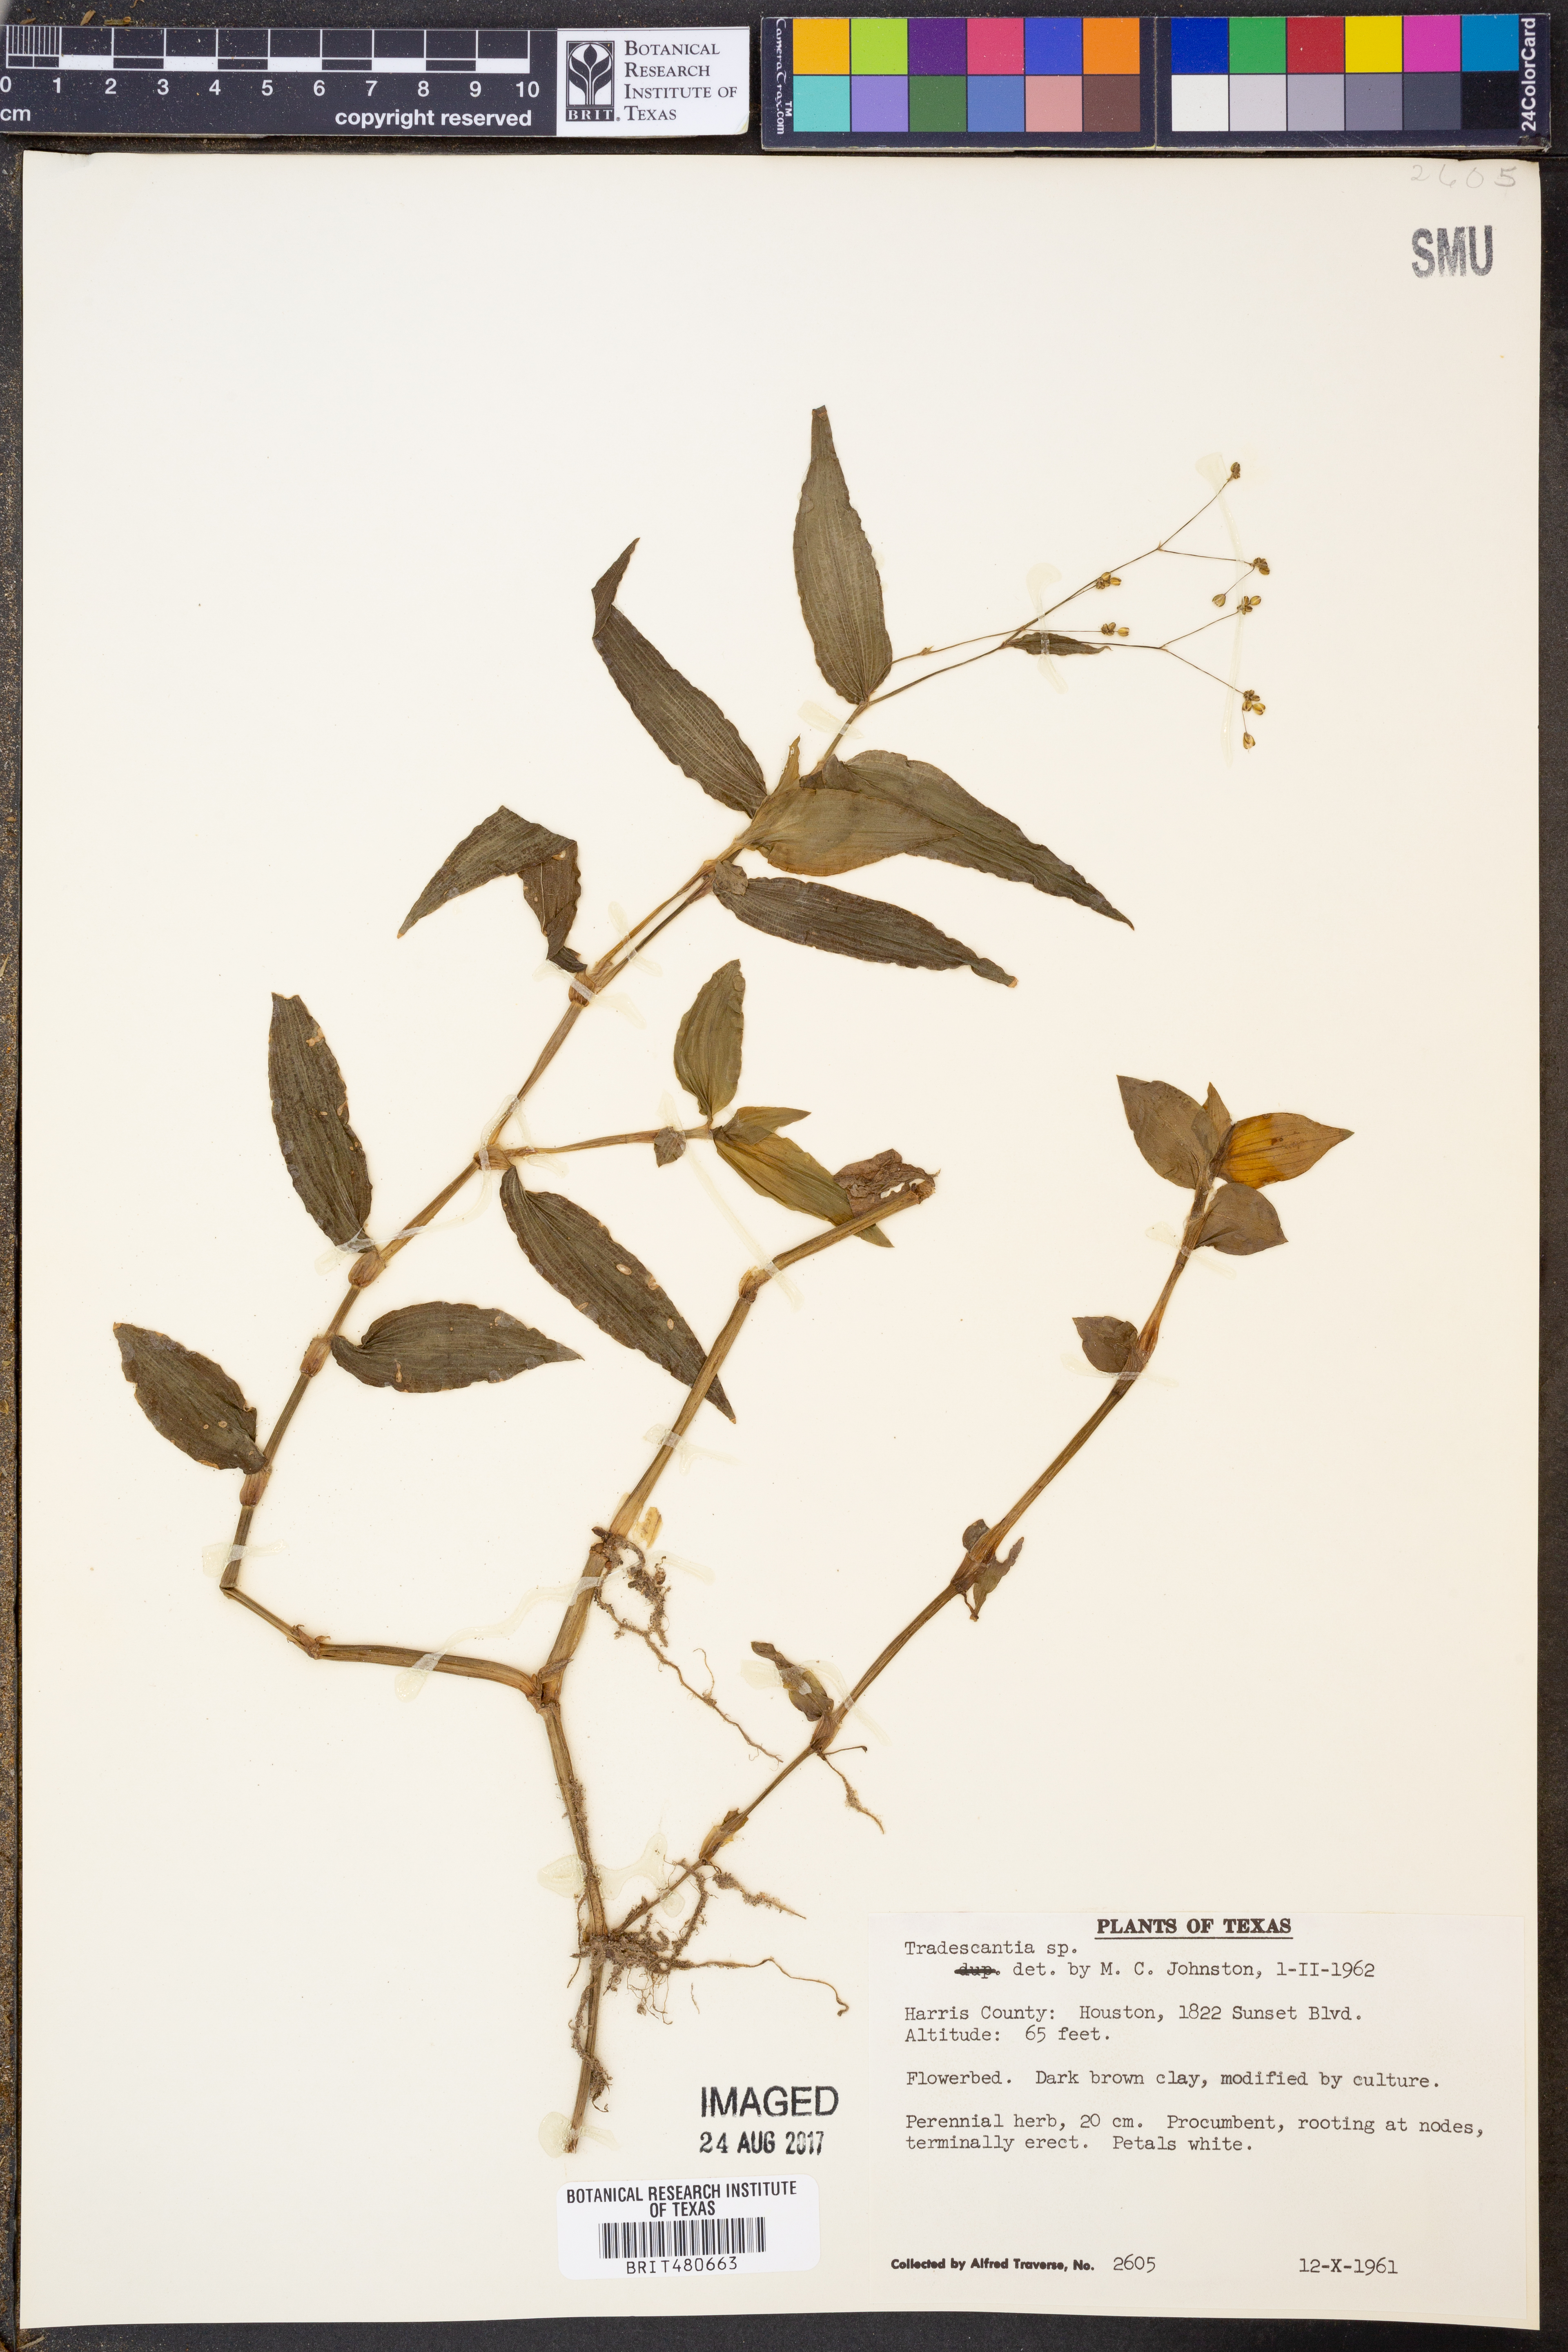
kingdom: Plantae
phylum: Tracheophyta
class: Liliopsida
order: Commelinales
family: Commelinaceae
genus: Tradescantia
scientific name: Tradescantia
